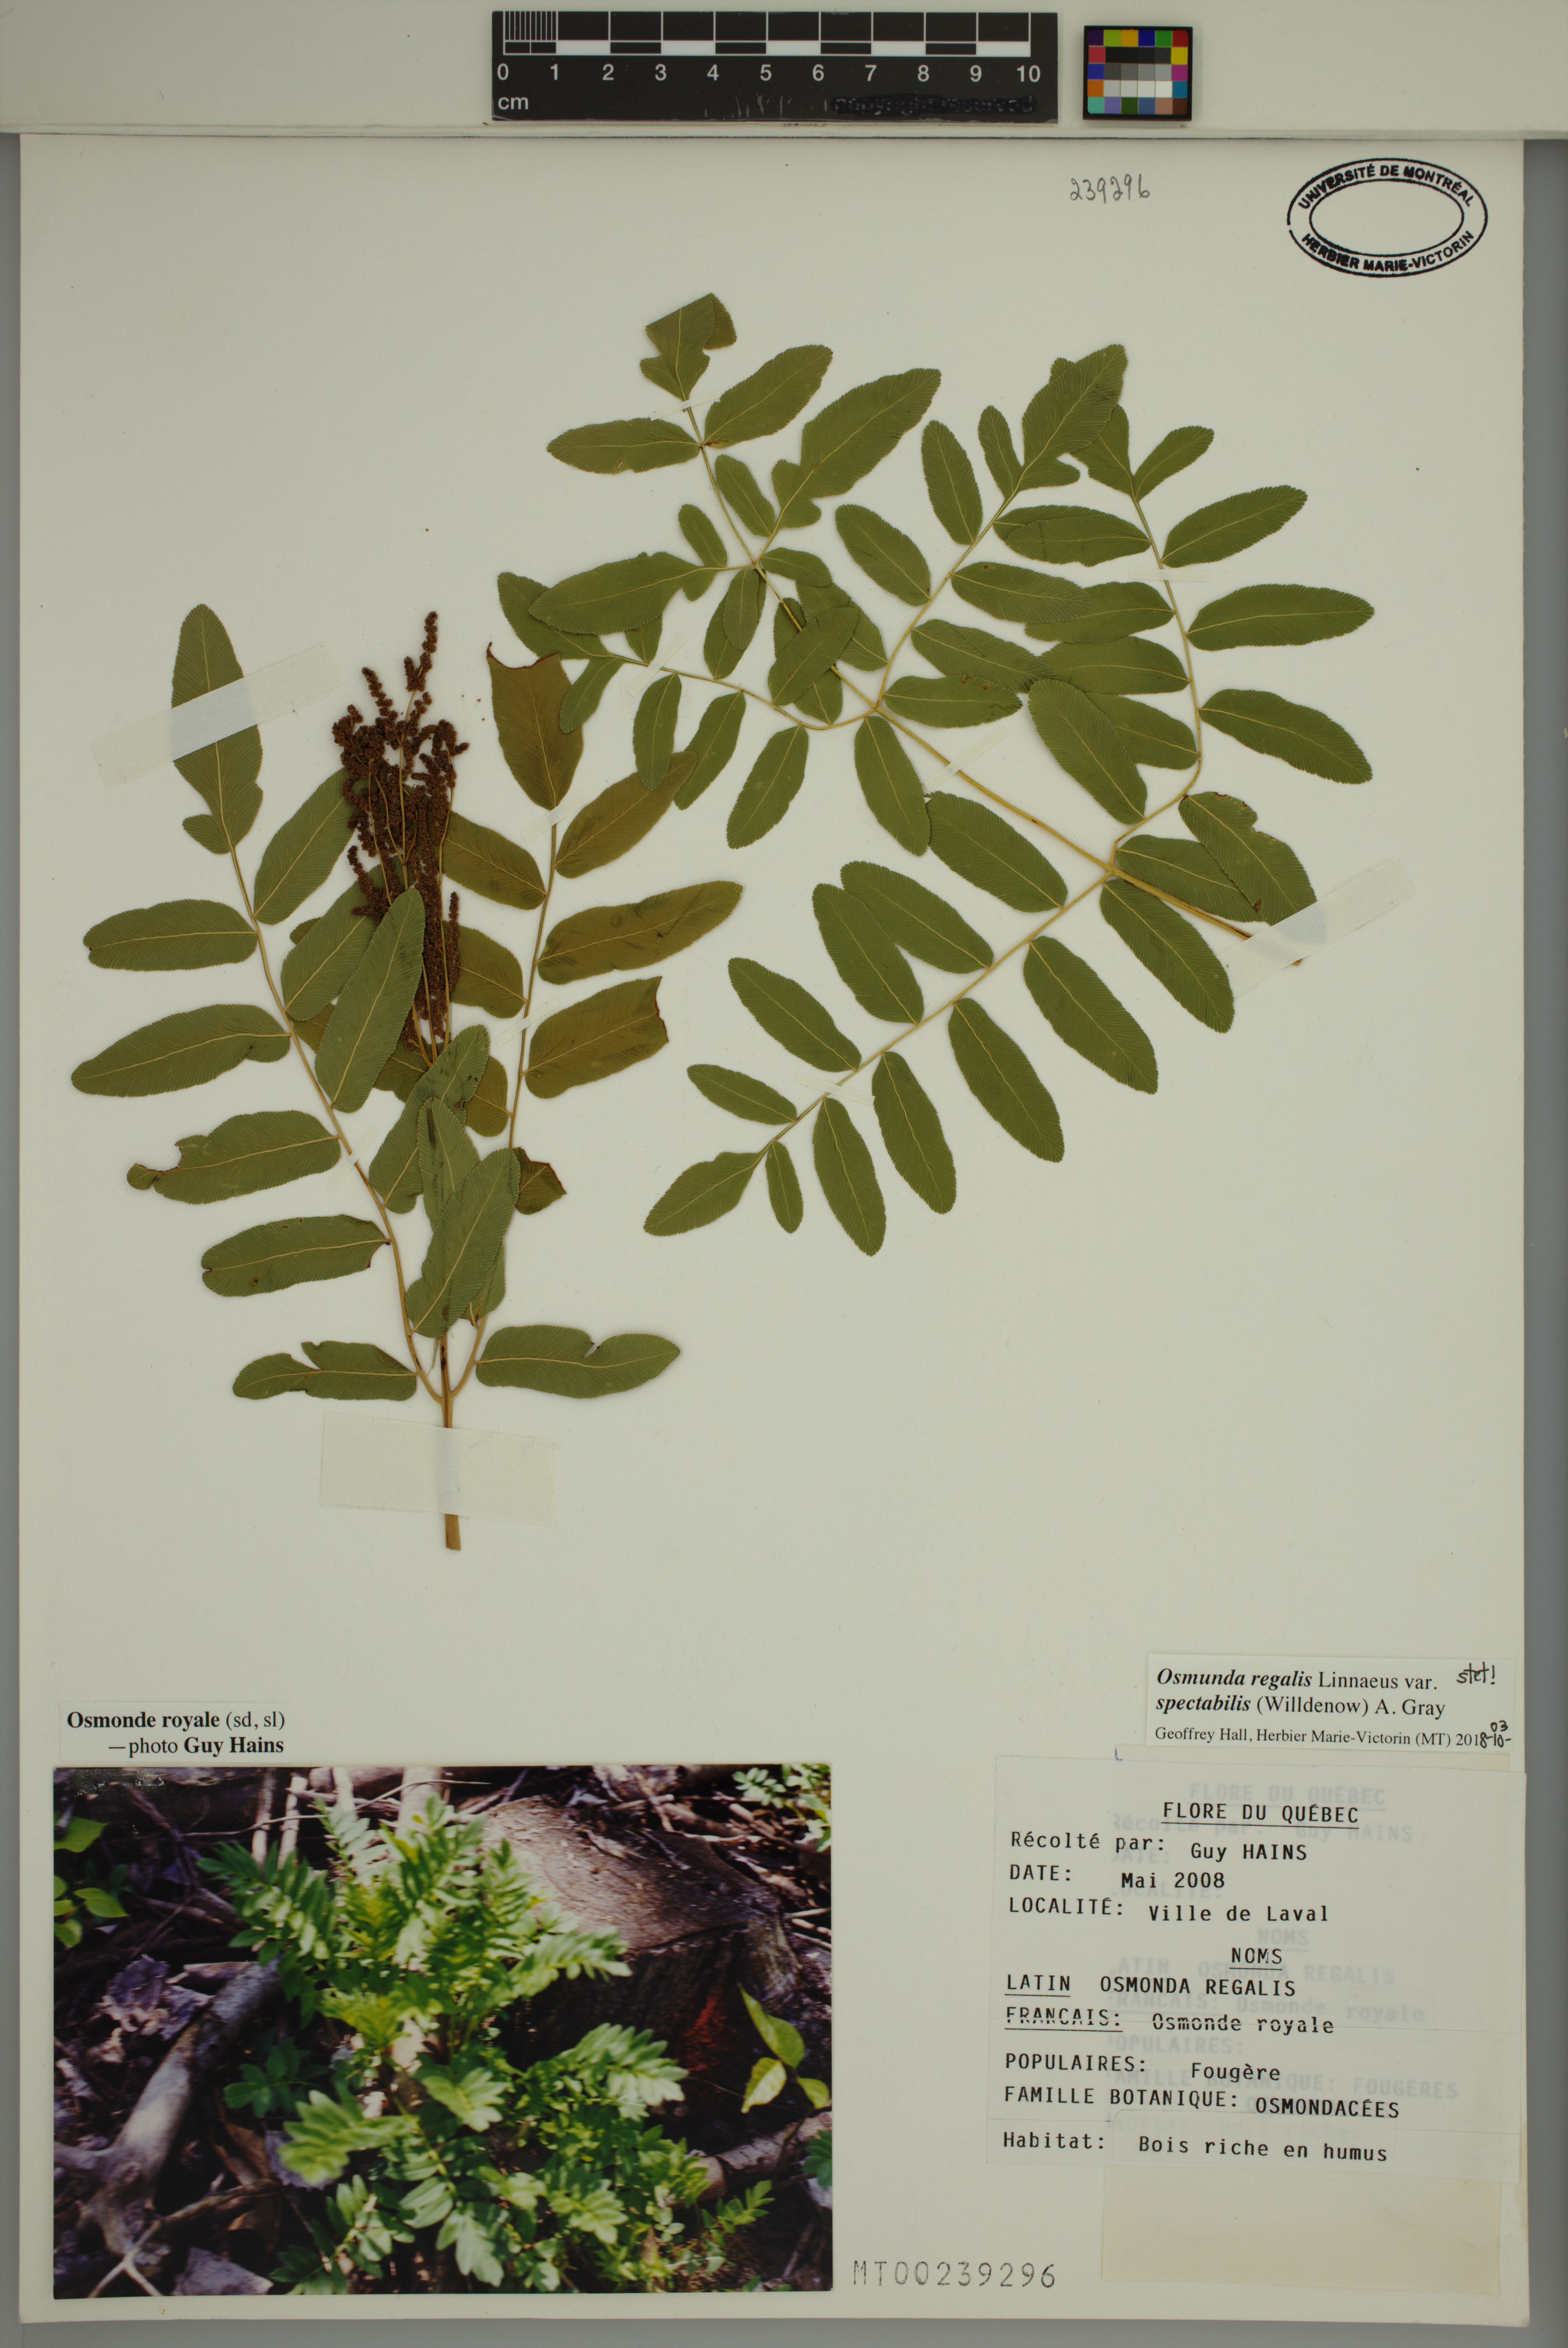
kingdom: Plantae
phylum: Tracheophyta
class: Polypodiopsida
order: Osmundales
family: Osmundaceae
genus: Osmunda
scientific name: Osmunda spectabilis
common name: American royal fern
